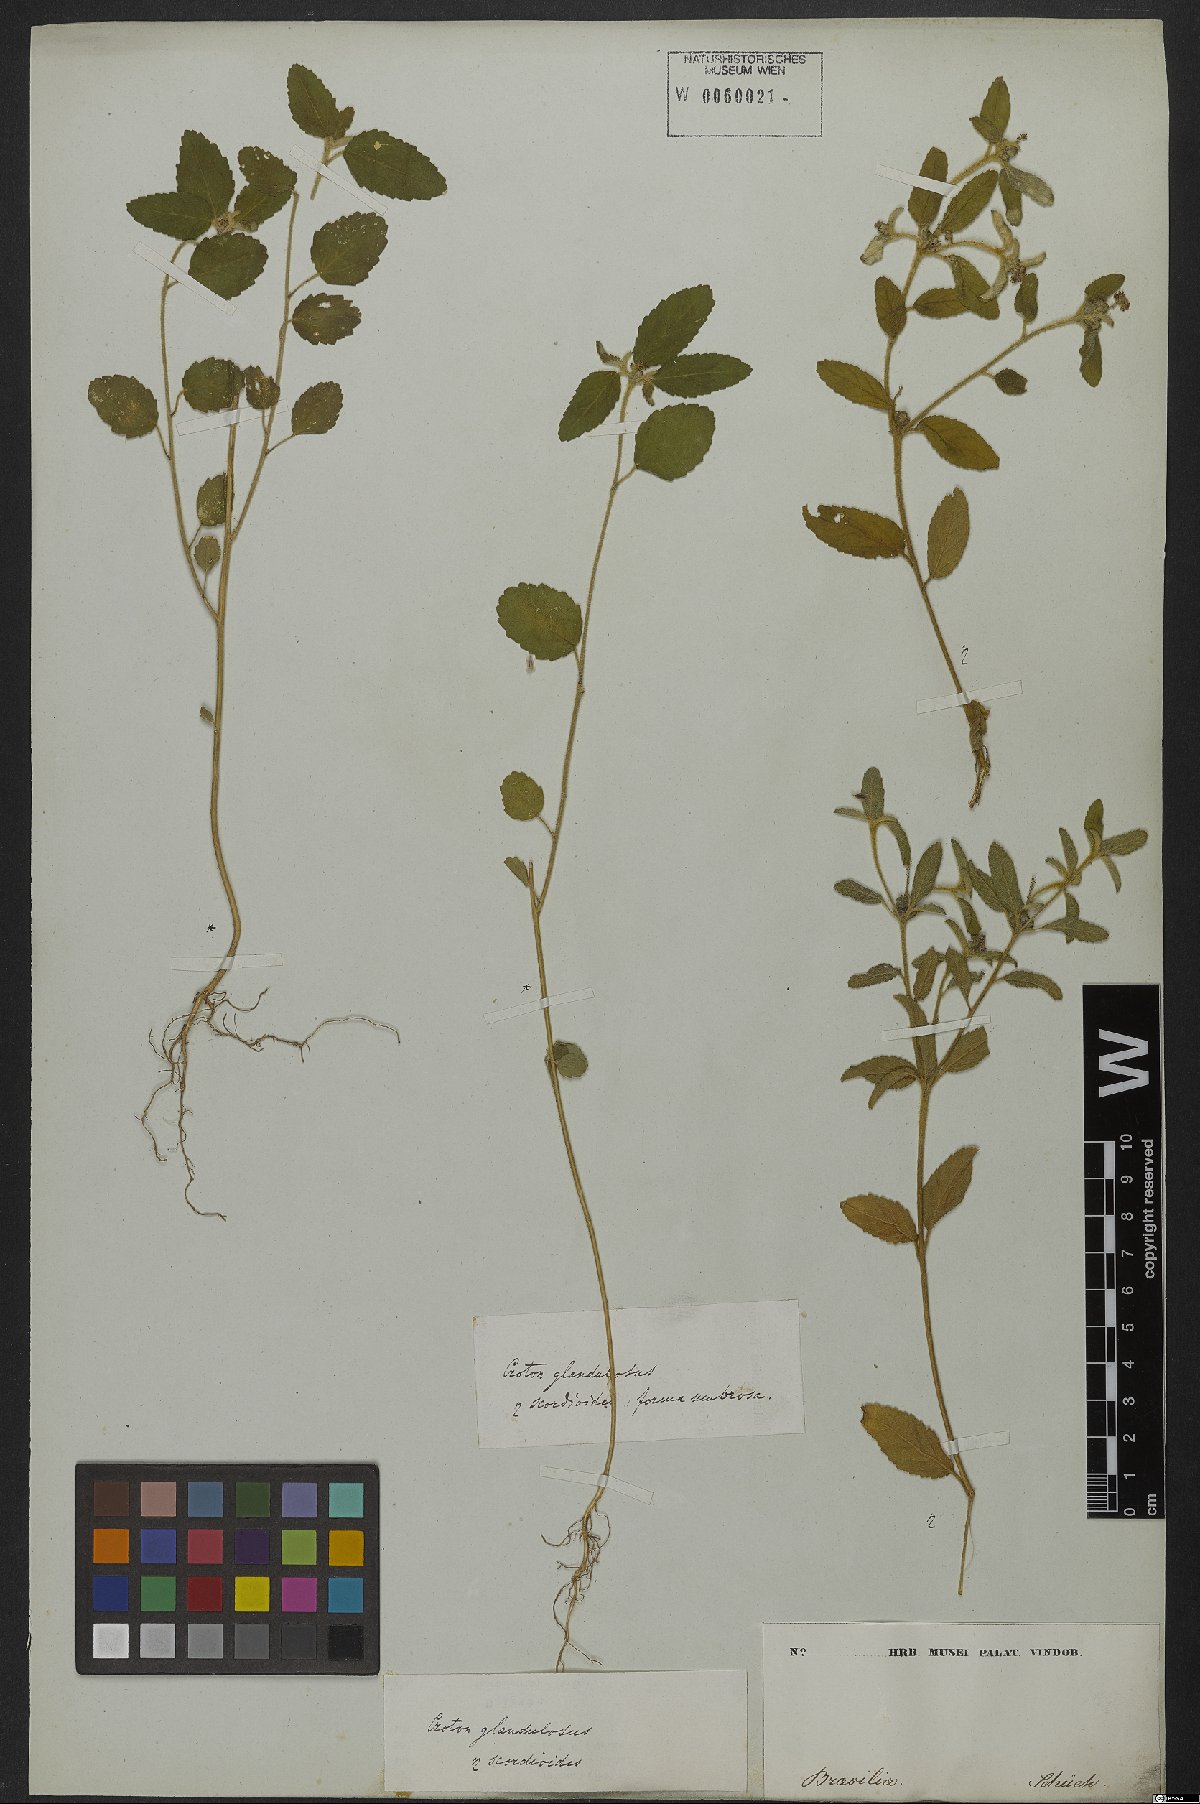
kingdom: Plantae
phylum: Tracheophyta
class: Magnoliopsida
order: Malpighiales
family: Euphorbiaceae
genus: Croton
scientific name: Croton glandulosus
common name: Tropic croton
